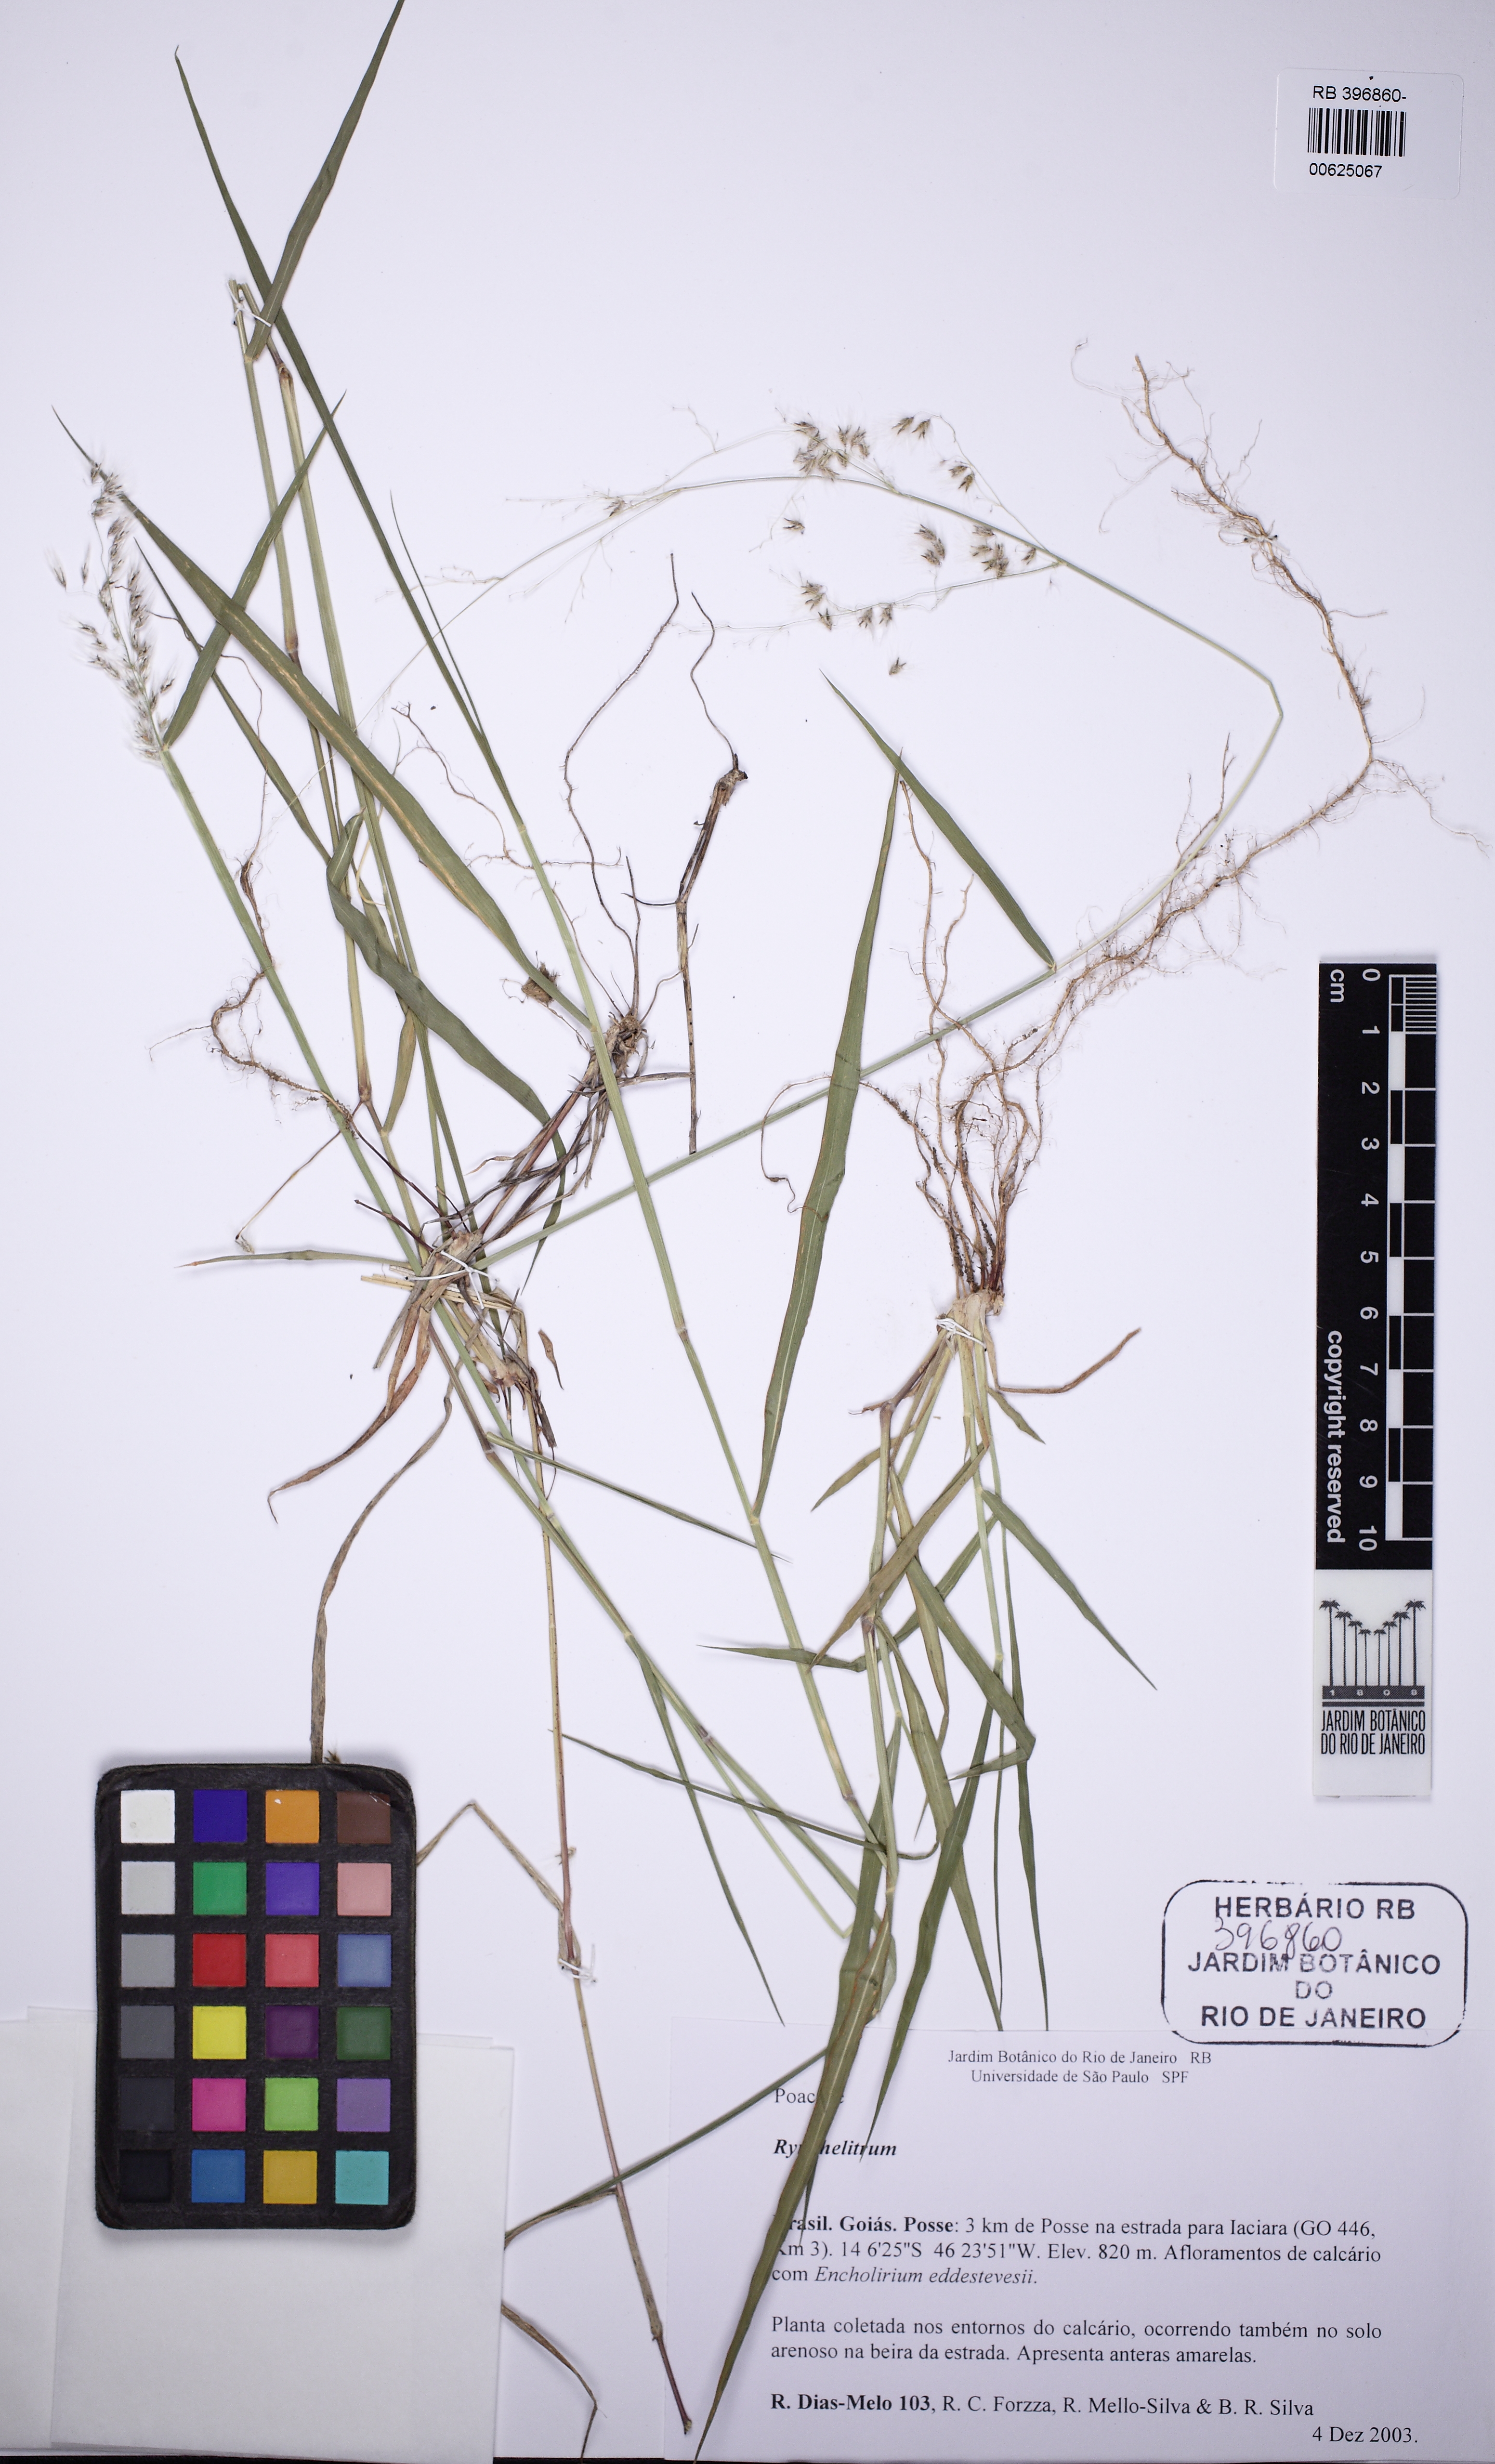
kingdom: Plantae
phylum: Tracheophyta
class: Liliopsida
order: Poales
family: Poaceae
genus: Rhynchelytrum
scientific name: Rhynchelytrum
